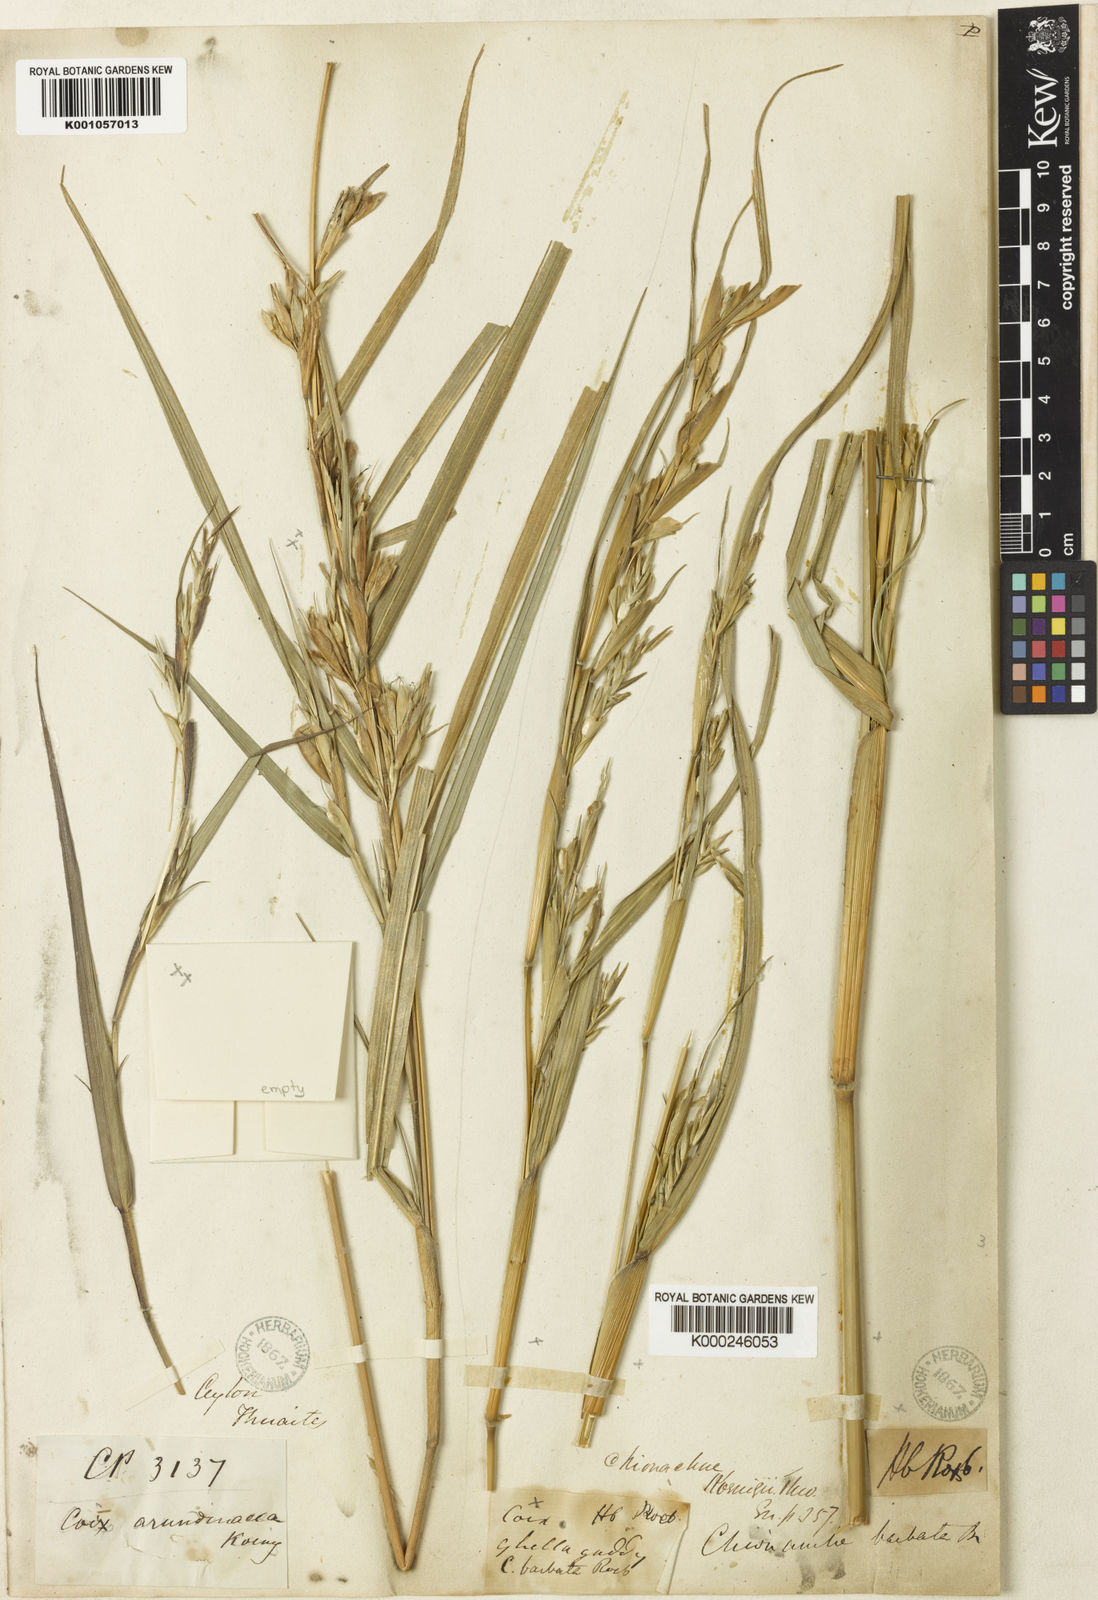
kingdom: Plantae
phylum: Tracheophyta
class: Liliopsida
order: Poales
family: Poaceae
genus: Polytoca
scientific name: Polytoca gigantea
